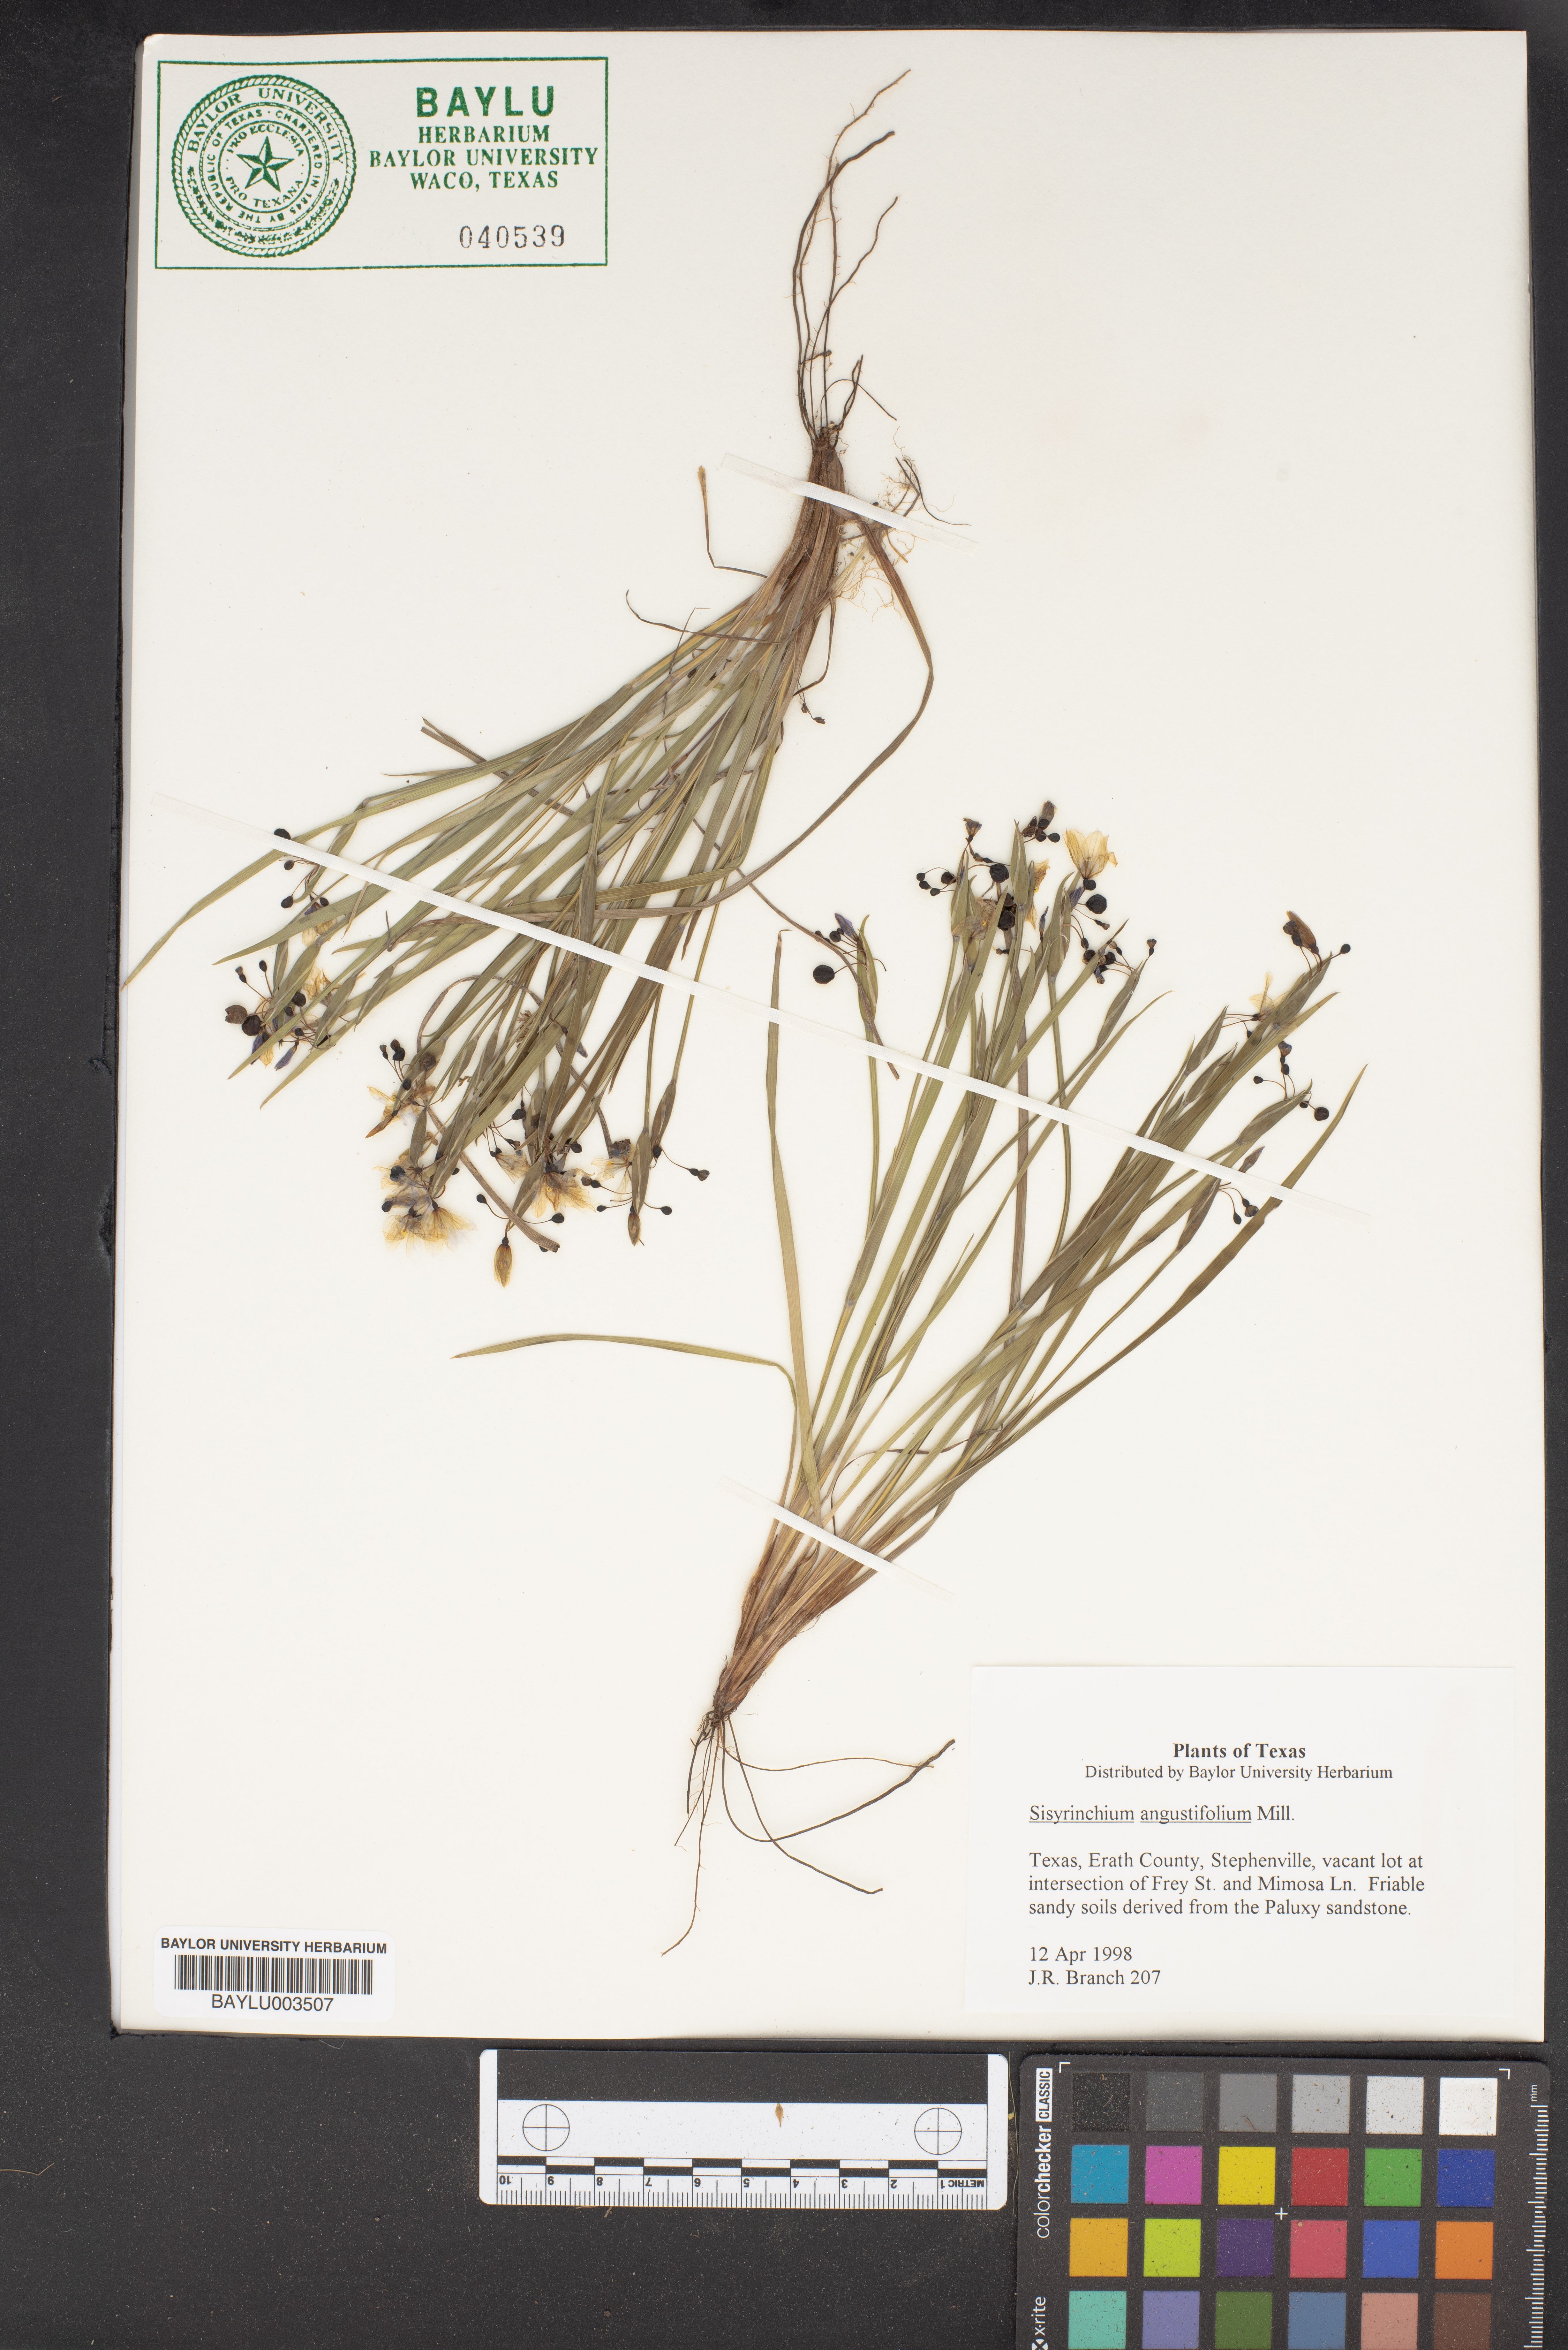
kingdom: Plantae
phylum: Tracheophyta
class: Liliopsida
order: Asparagales
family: Iridaceae
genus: Sisyrinchium
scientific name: Sisyrinchium angustifolium
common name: Narrow-leaf blue-eyed-grass
